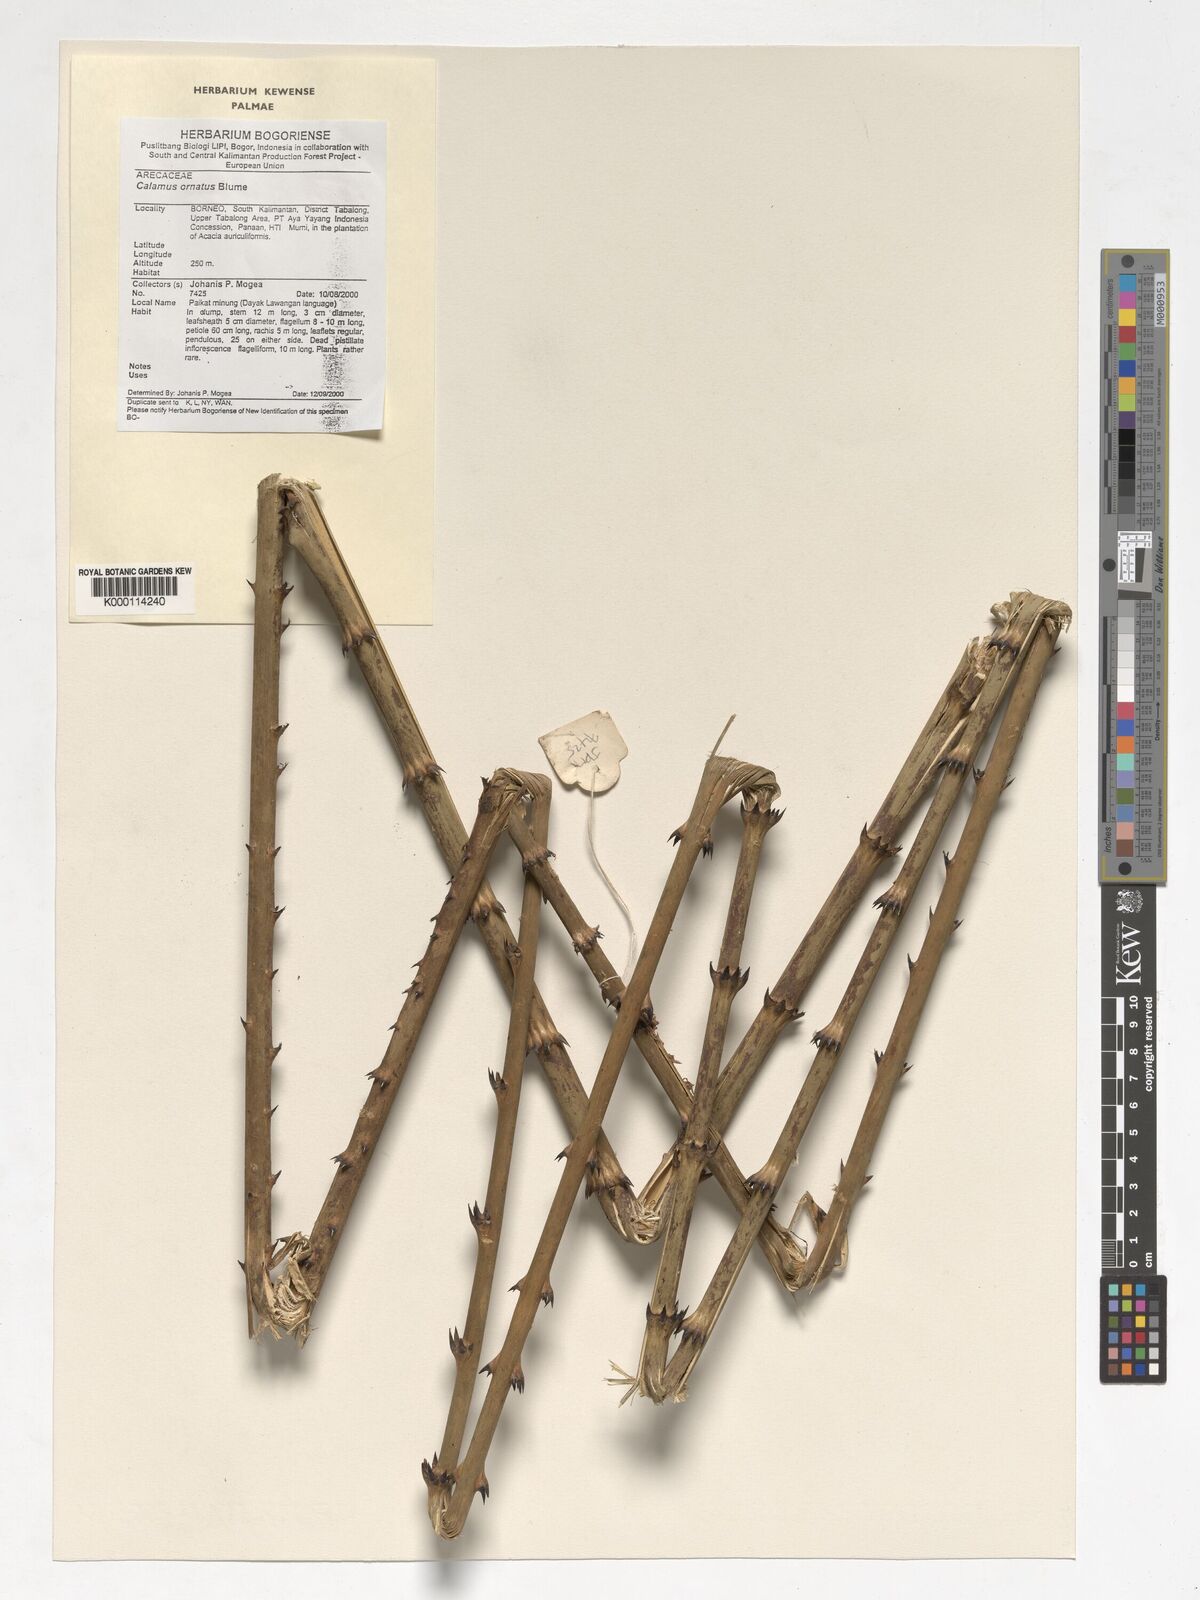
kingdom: Plantae
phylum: Tracheophyta
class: Liliopsida
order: Arecales
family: Arecaceae
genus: Calamus
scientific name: Calamus
